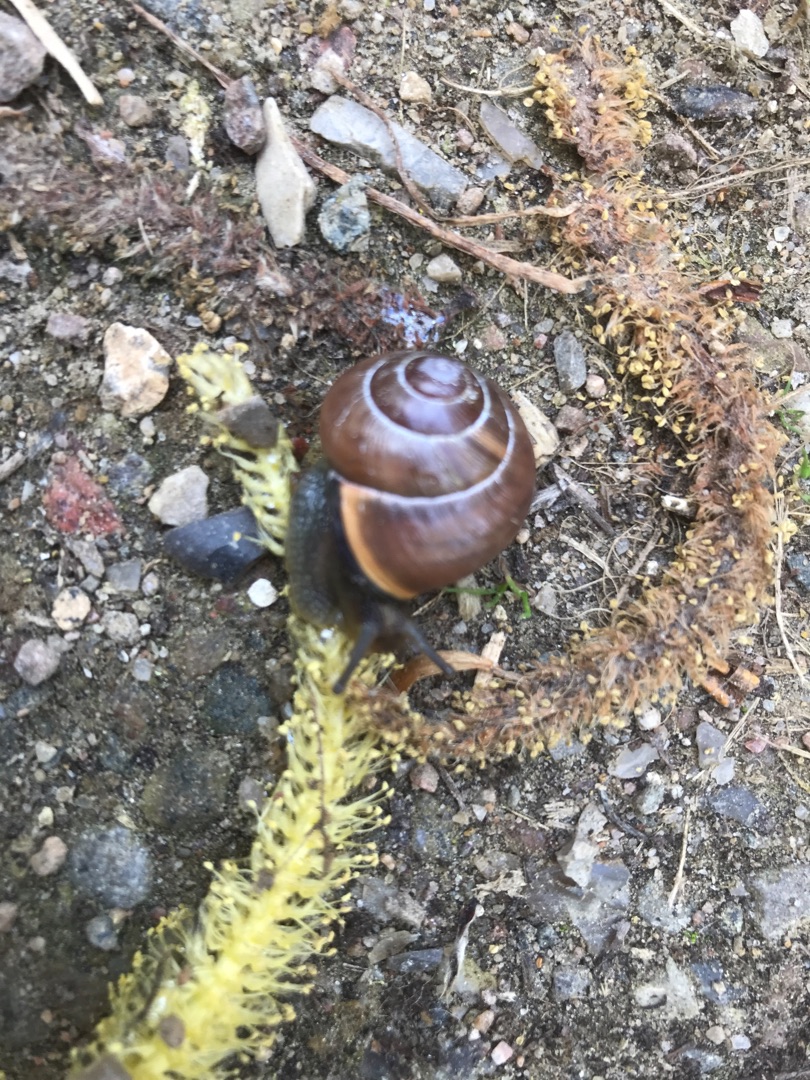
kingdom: Animalia
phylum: Mollusca
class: Gastropoda
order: Stylommatophora
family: Helicidae
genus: Cepaea
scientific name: Cepaea nemoralis
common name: Lundsnegl
